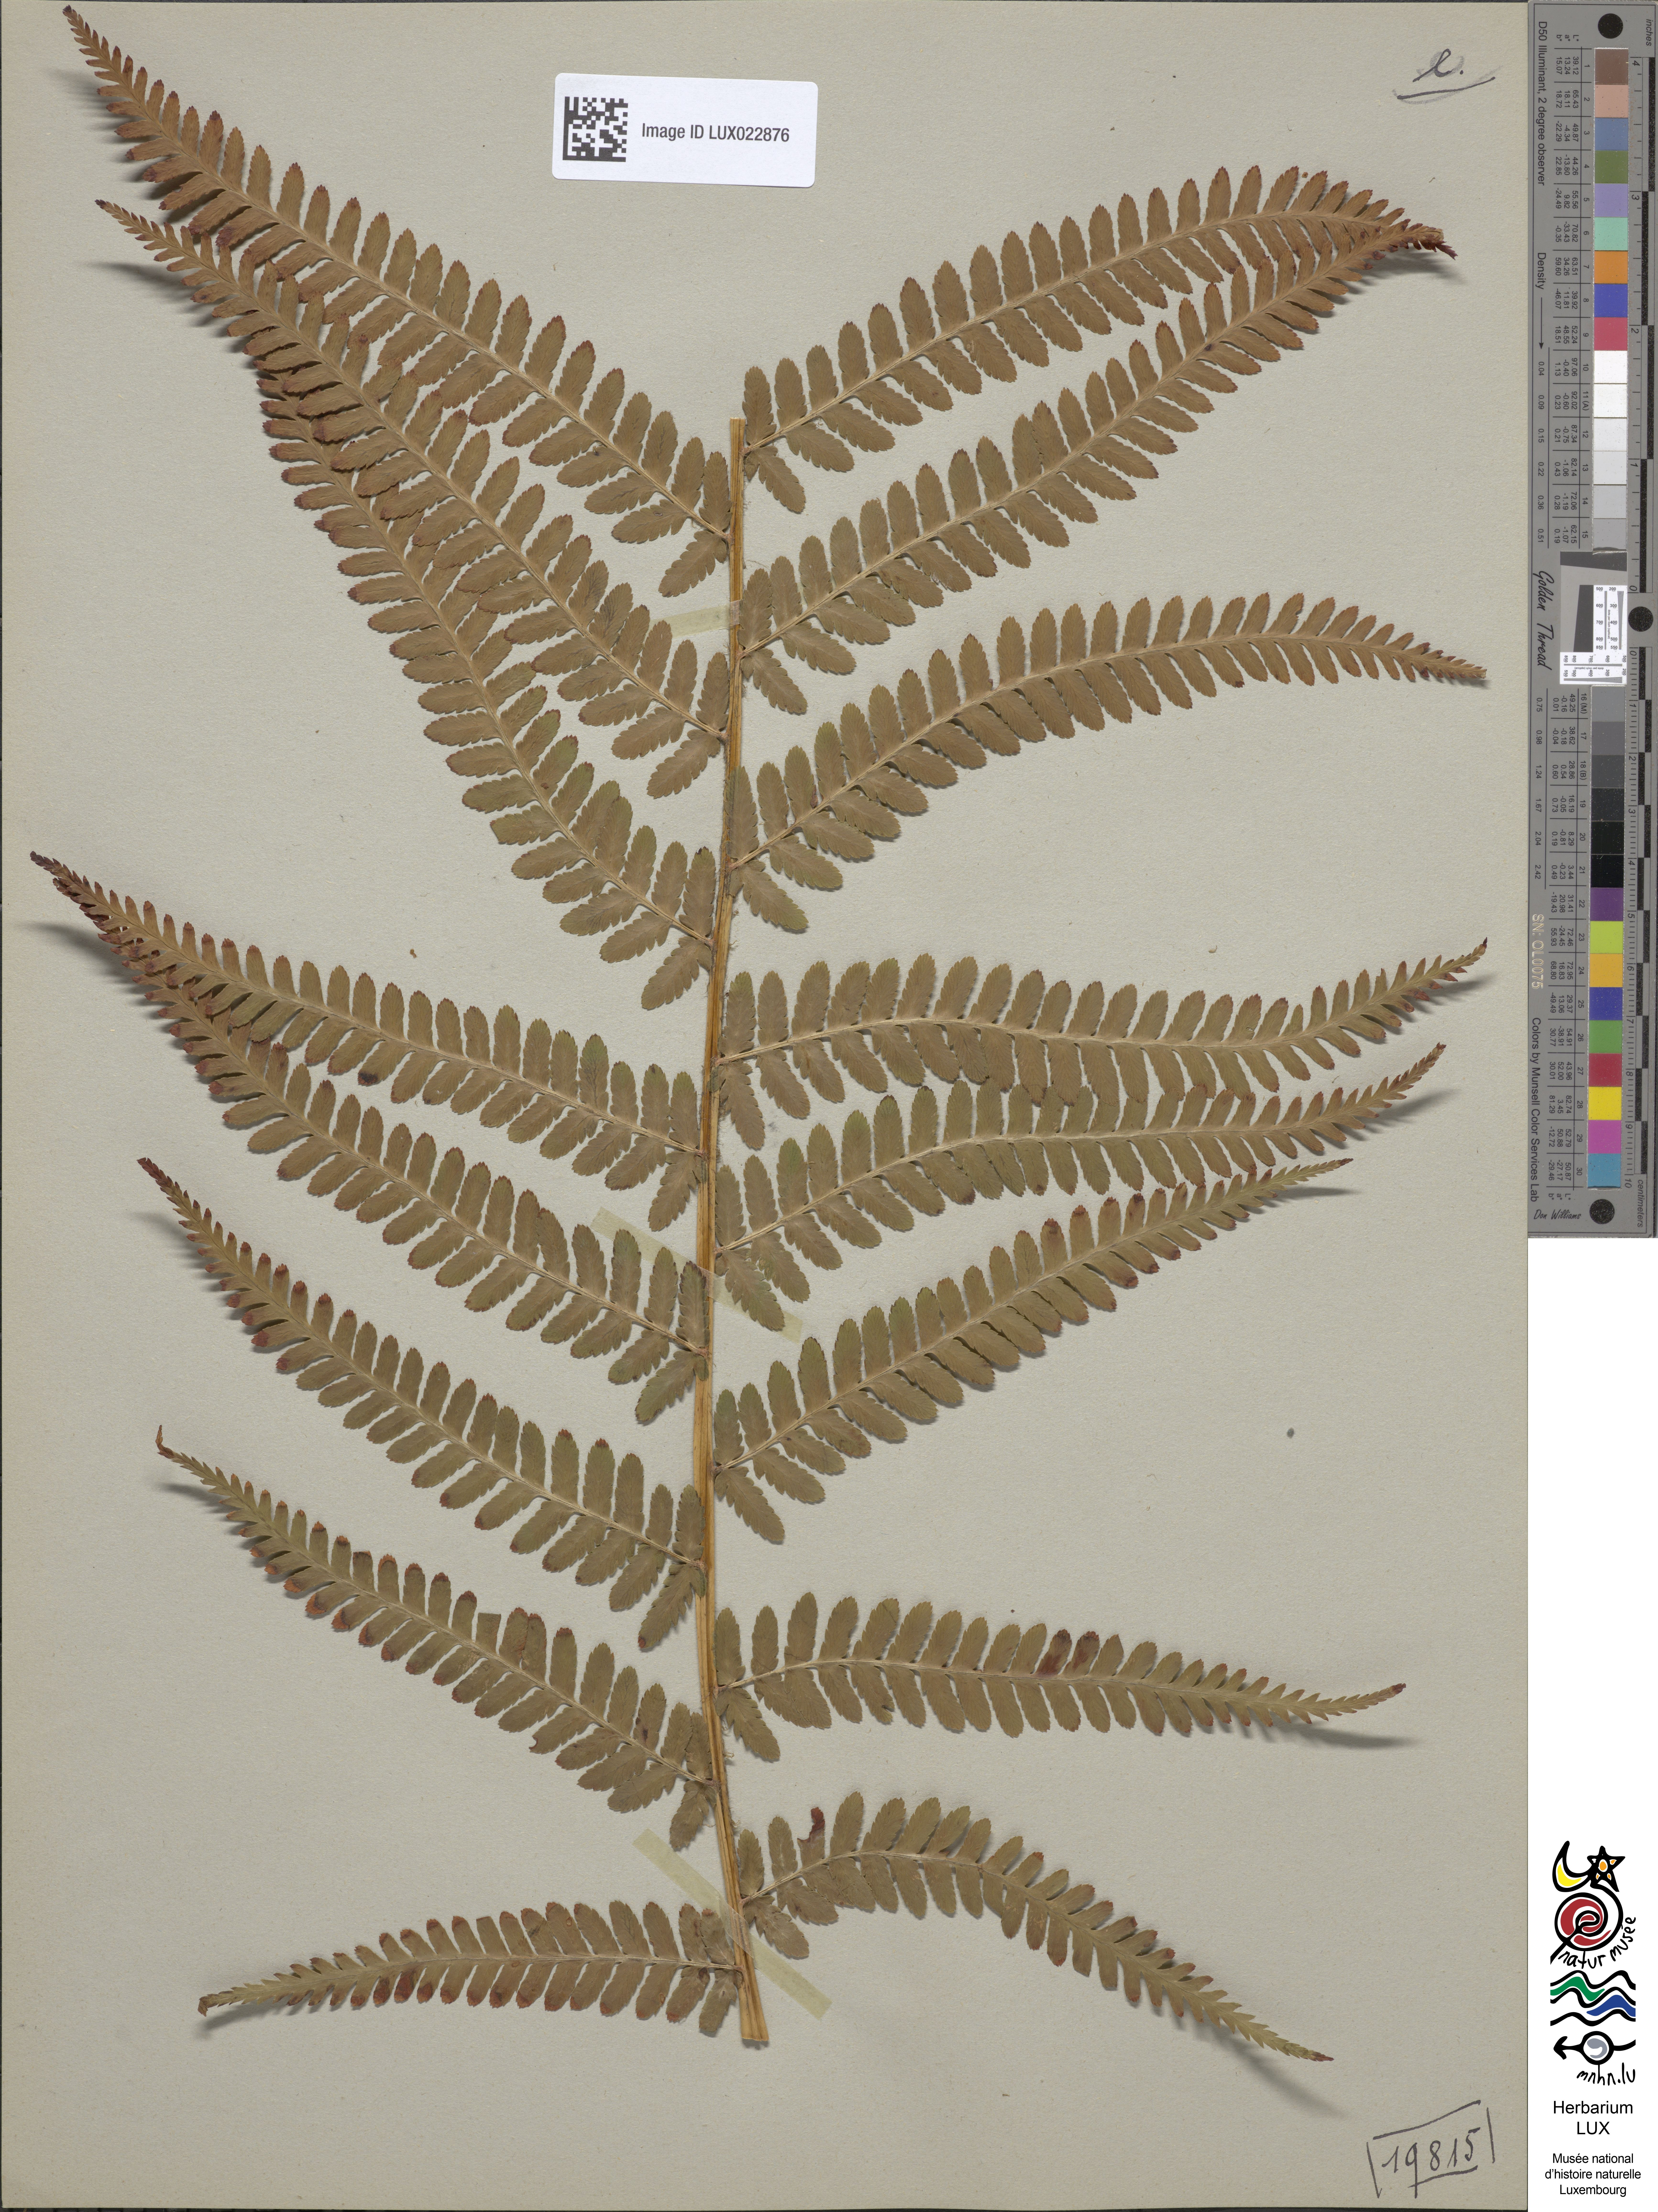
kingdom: Plantae
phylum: Tracheophyta
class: Polypodiopsida
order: Polypodiales
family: Dryopteridaceae
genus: Dryopteris
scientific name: Dryopteris filix-mas
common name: Male fern
